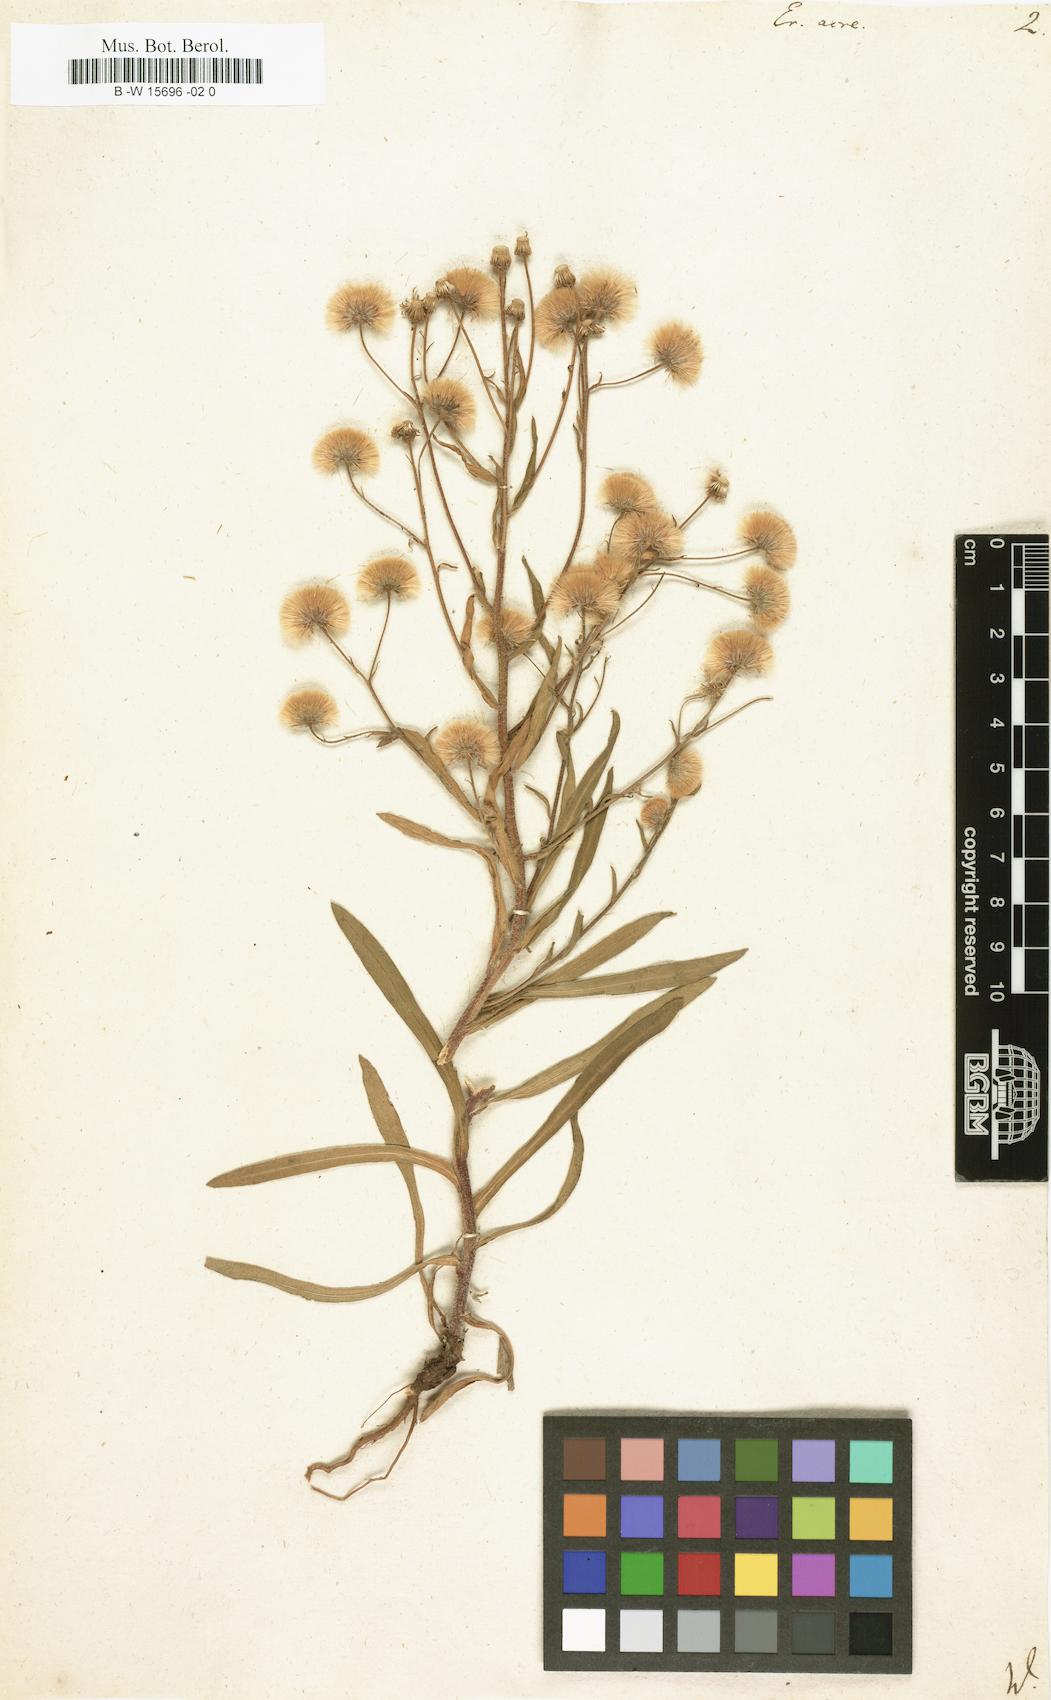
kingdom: Plantae
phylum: Tracheophyta
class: Magnoliopsida
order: Asterales
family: Asteraceae
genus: Erigeron
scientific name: Erigeron acris
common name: Blue fleabane
